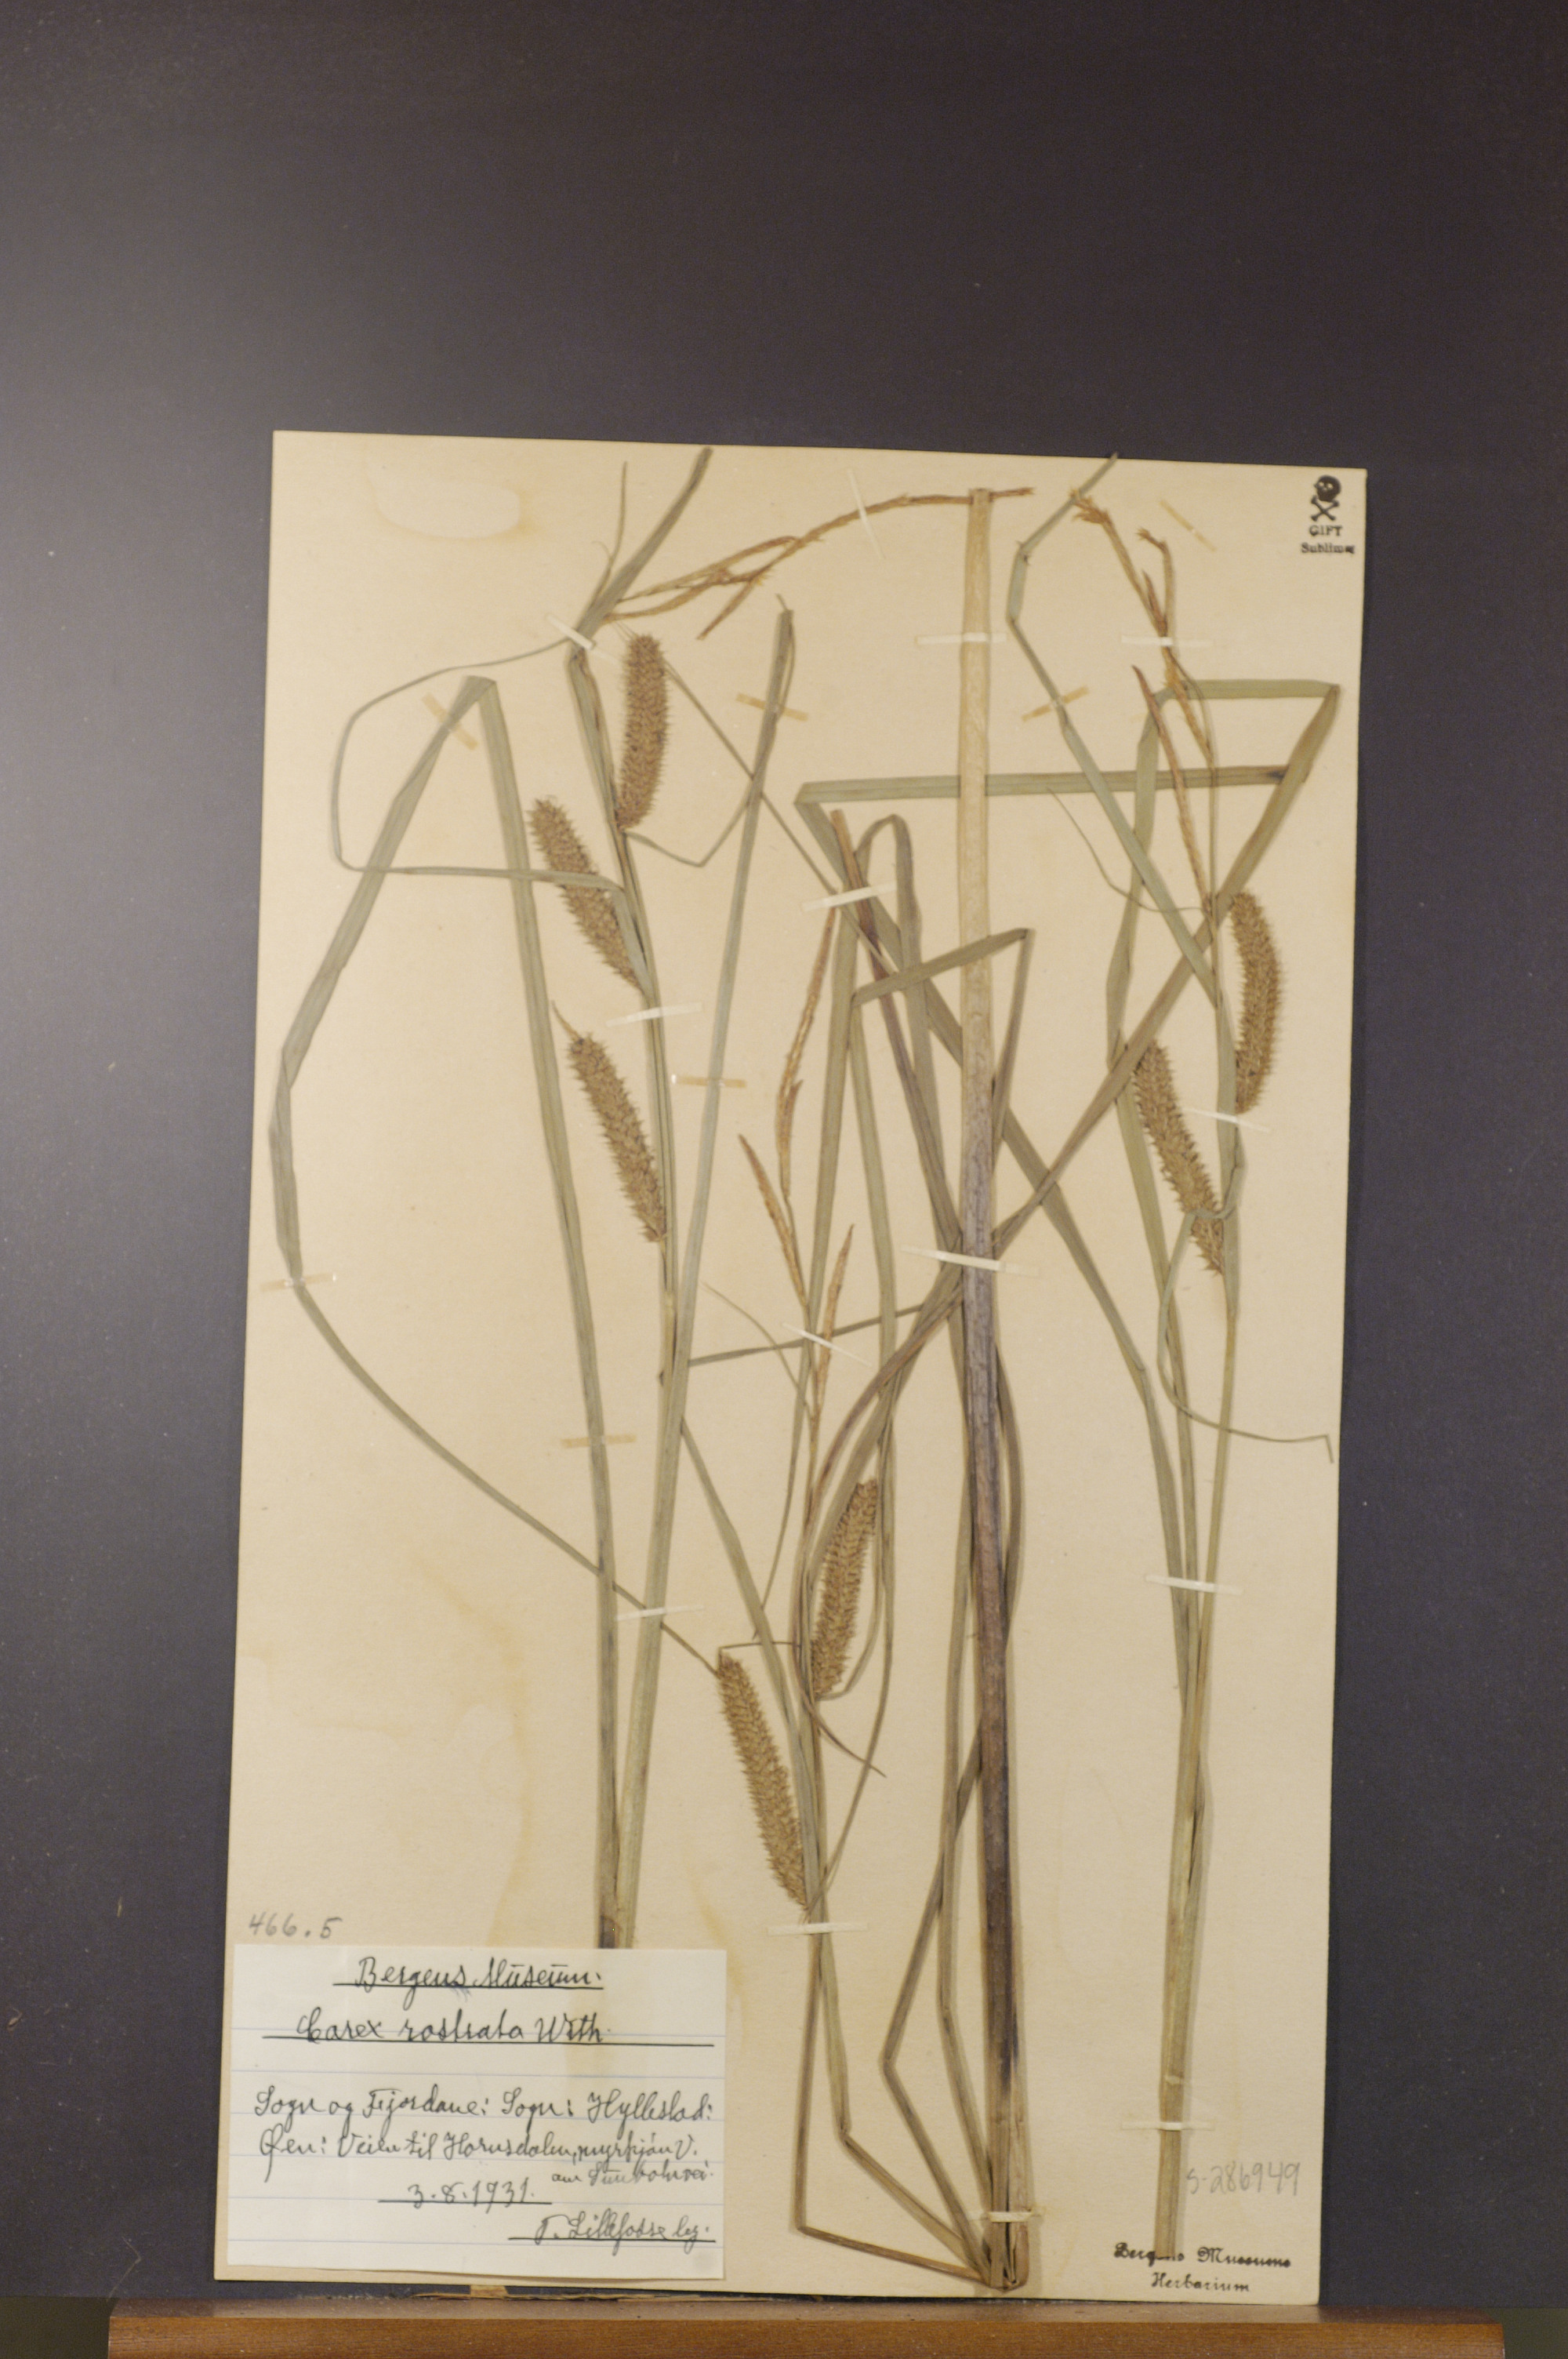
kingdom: Plantae
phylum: Tracheophyta
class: Liliopsida
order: Poales
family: Cyperaceae
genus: Carex
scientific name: Carex rostrata
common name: Bottle sedge
